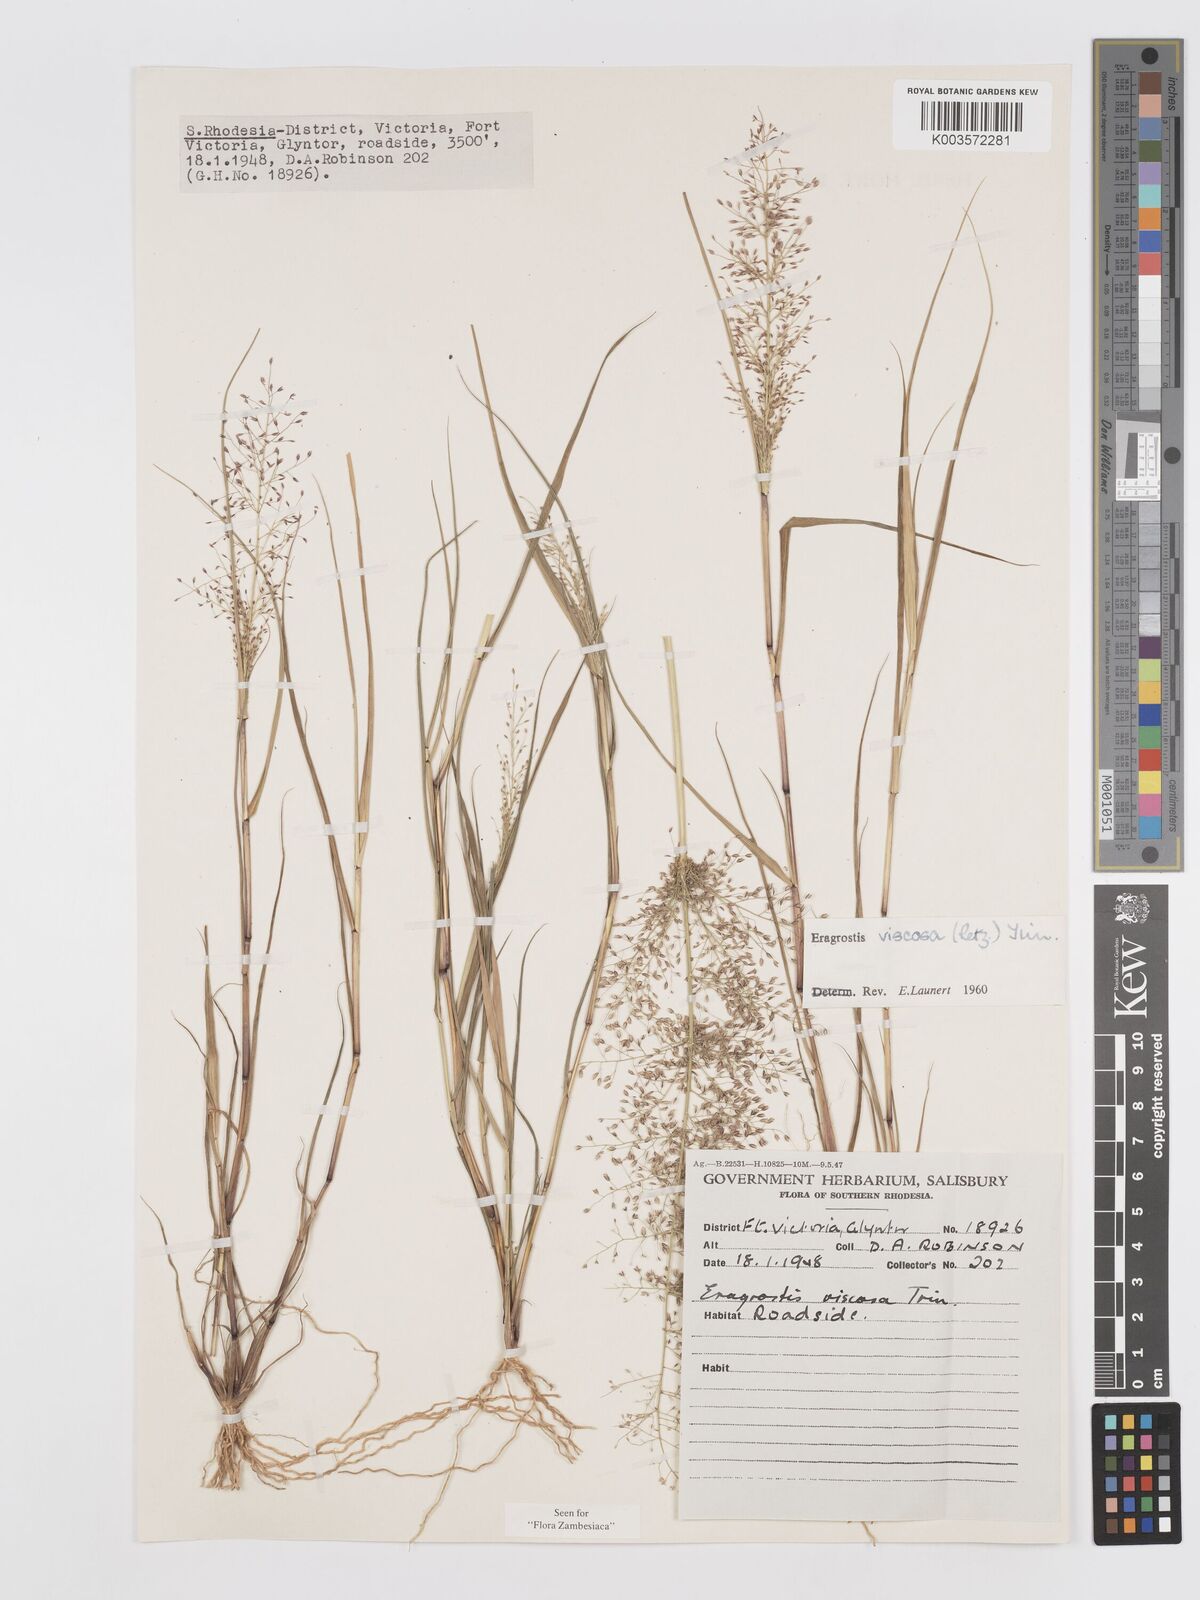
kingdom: Plantae
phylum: Tracheophyta
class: Liliopsida
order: Poales
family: Poaceae
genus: Eragrostis
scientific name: Eragrostis
